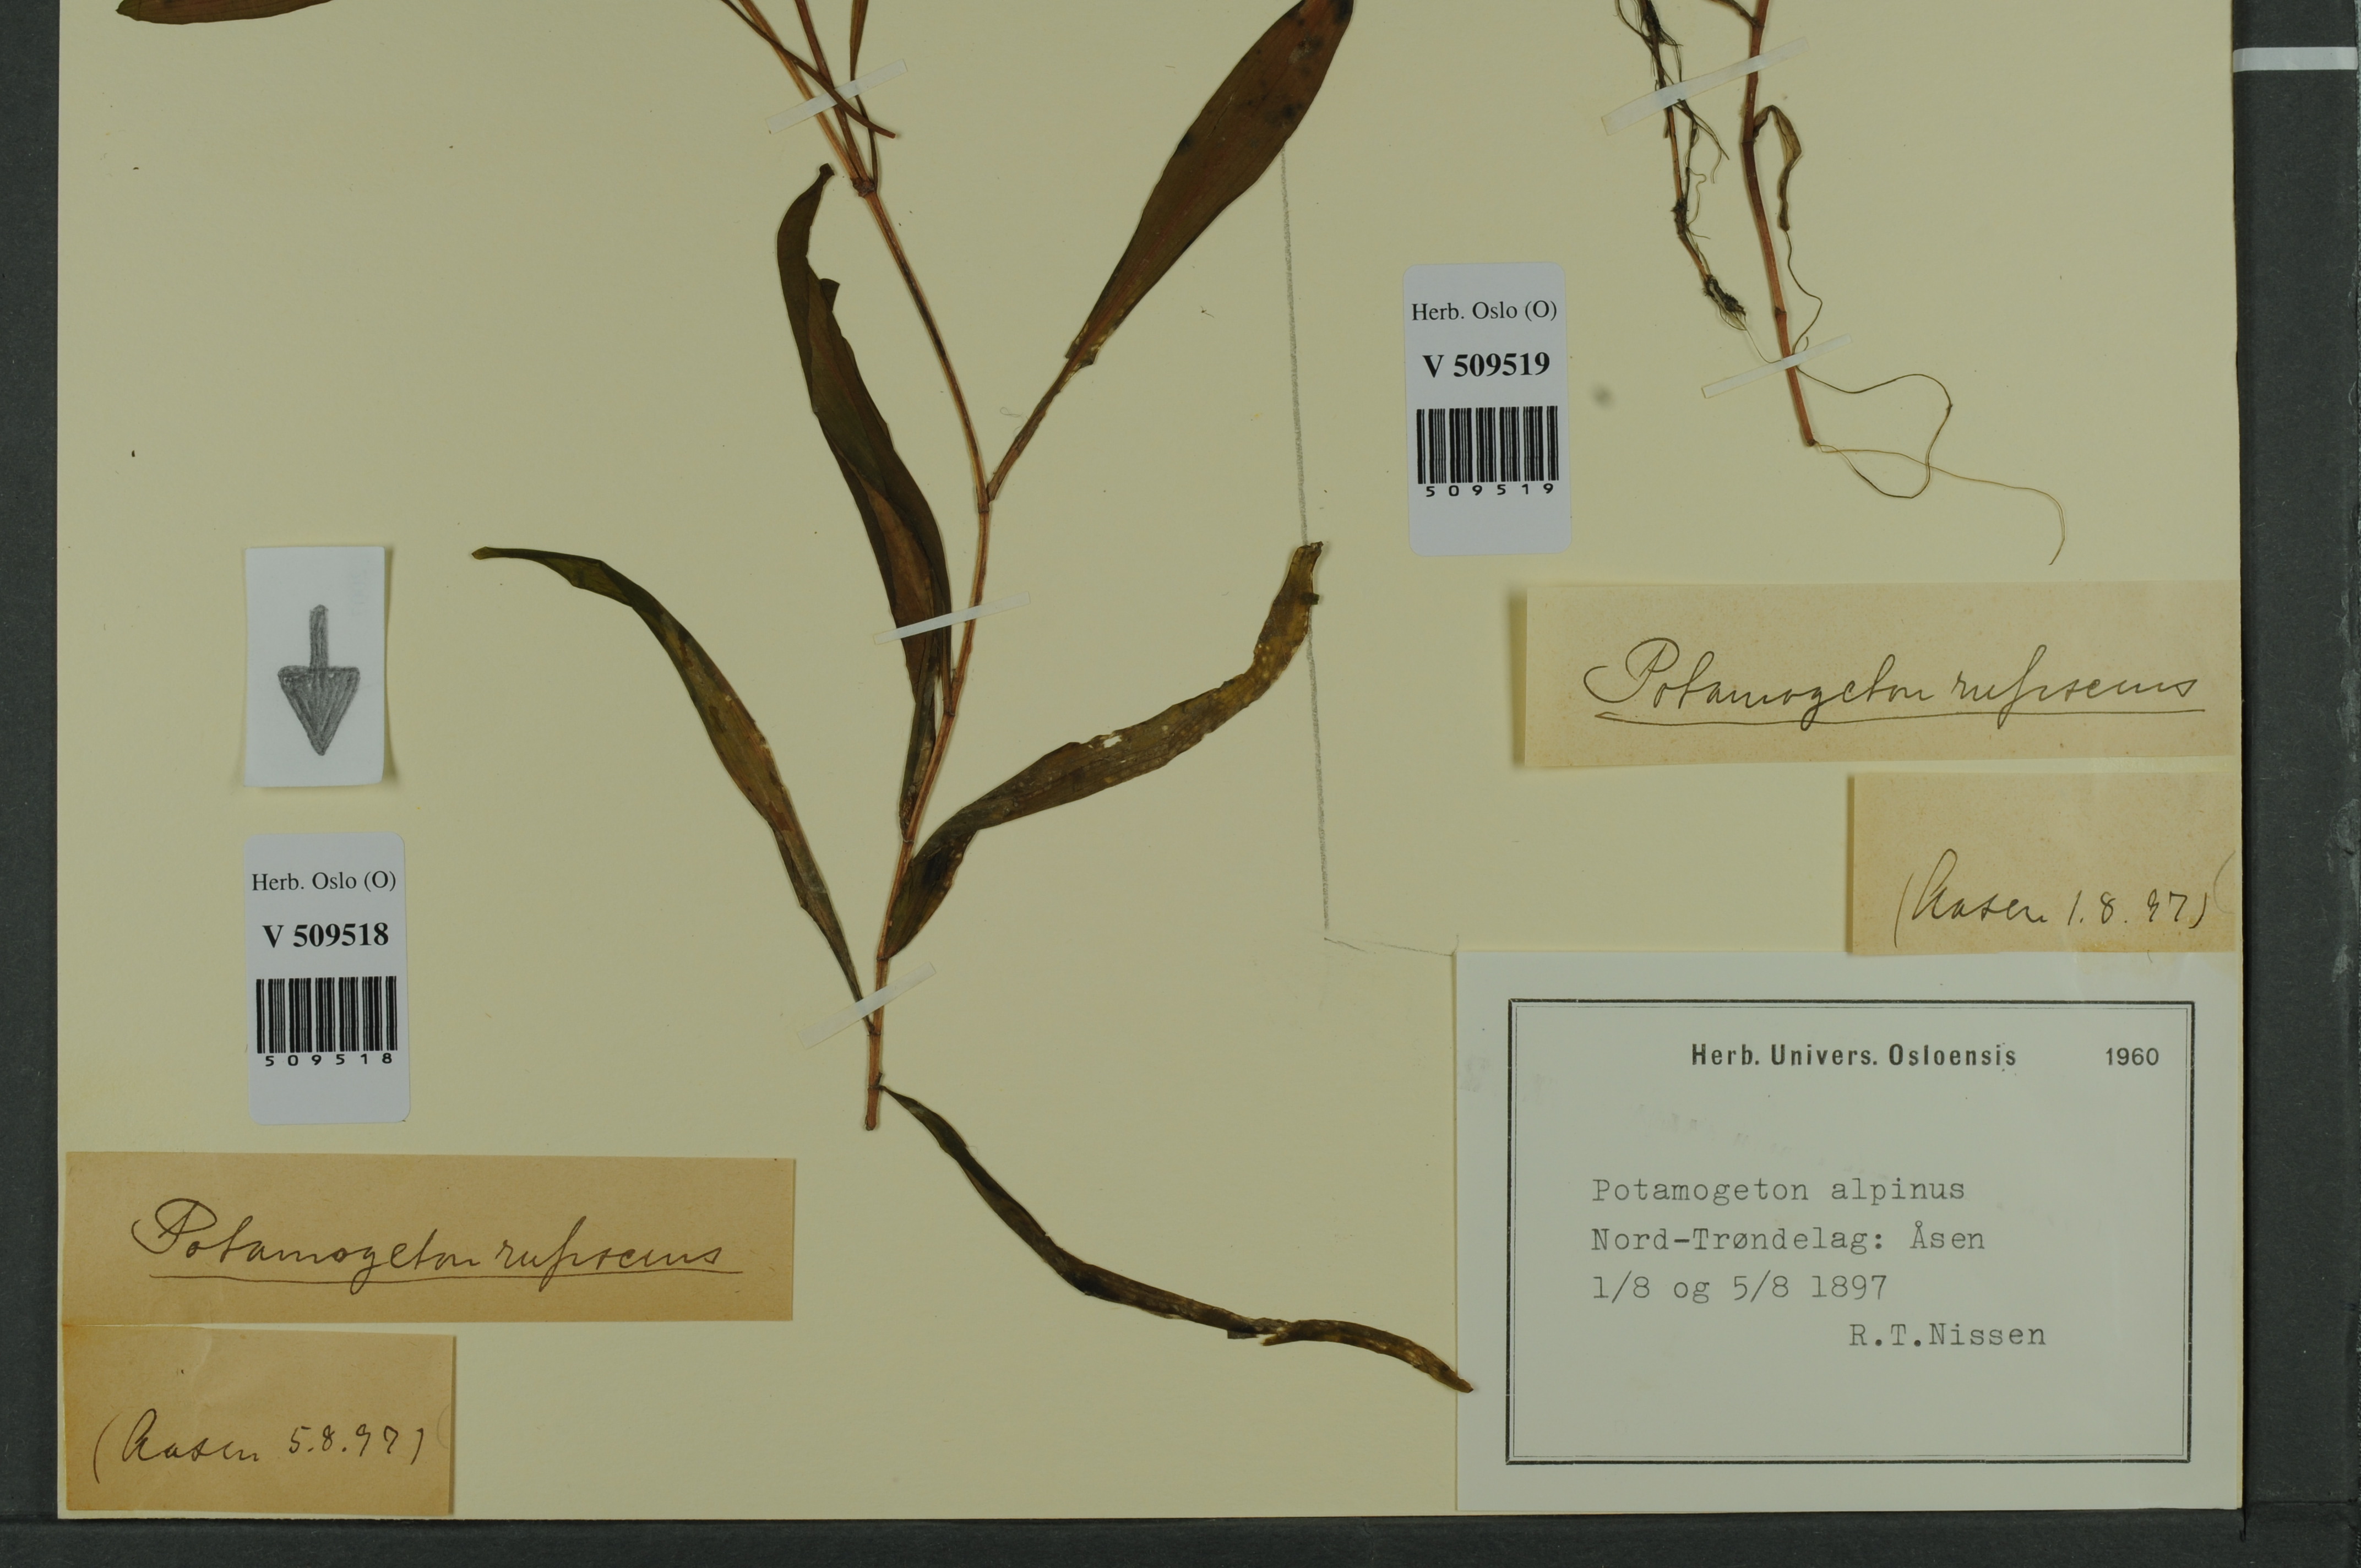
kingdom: Plantae
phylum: Tracheophyta
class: Liliopsida
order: Alismatales
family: Potamogetonaceae
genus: Potamogeton
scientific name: Potamogeton alpinus
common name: Red pondweed
